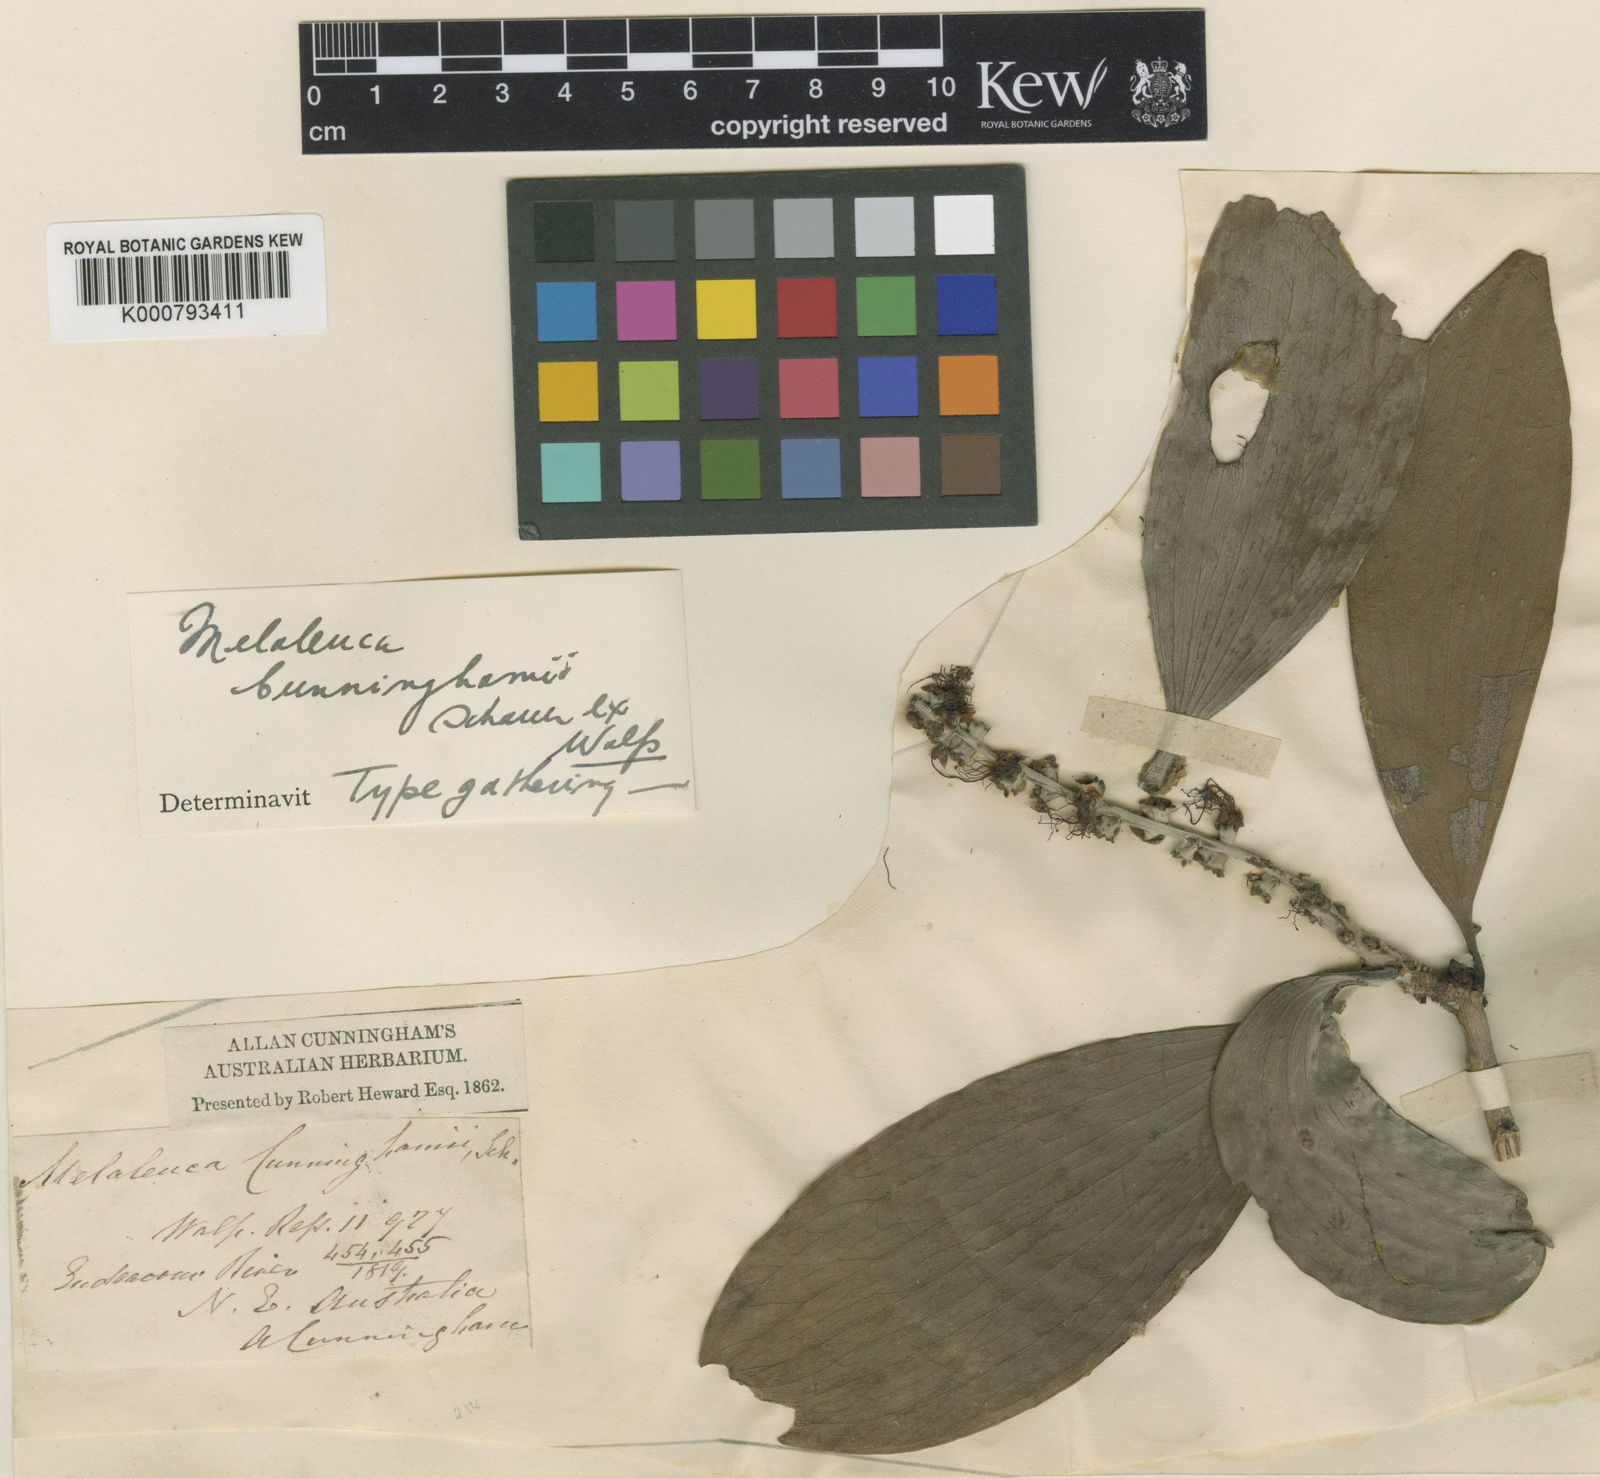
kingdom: Plantae
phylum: Tracheophyta
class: Magnoliopsida
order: Myrtales
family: Myrtaceae
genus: Melaleuca
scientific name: Melaleuca viridiflora
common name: Brown-leaved paperbark
